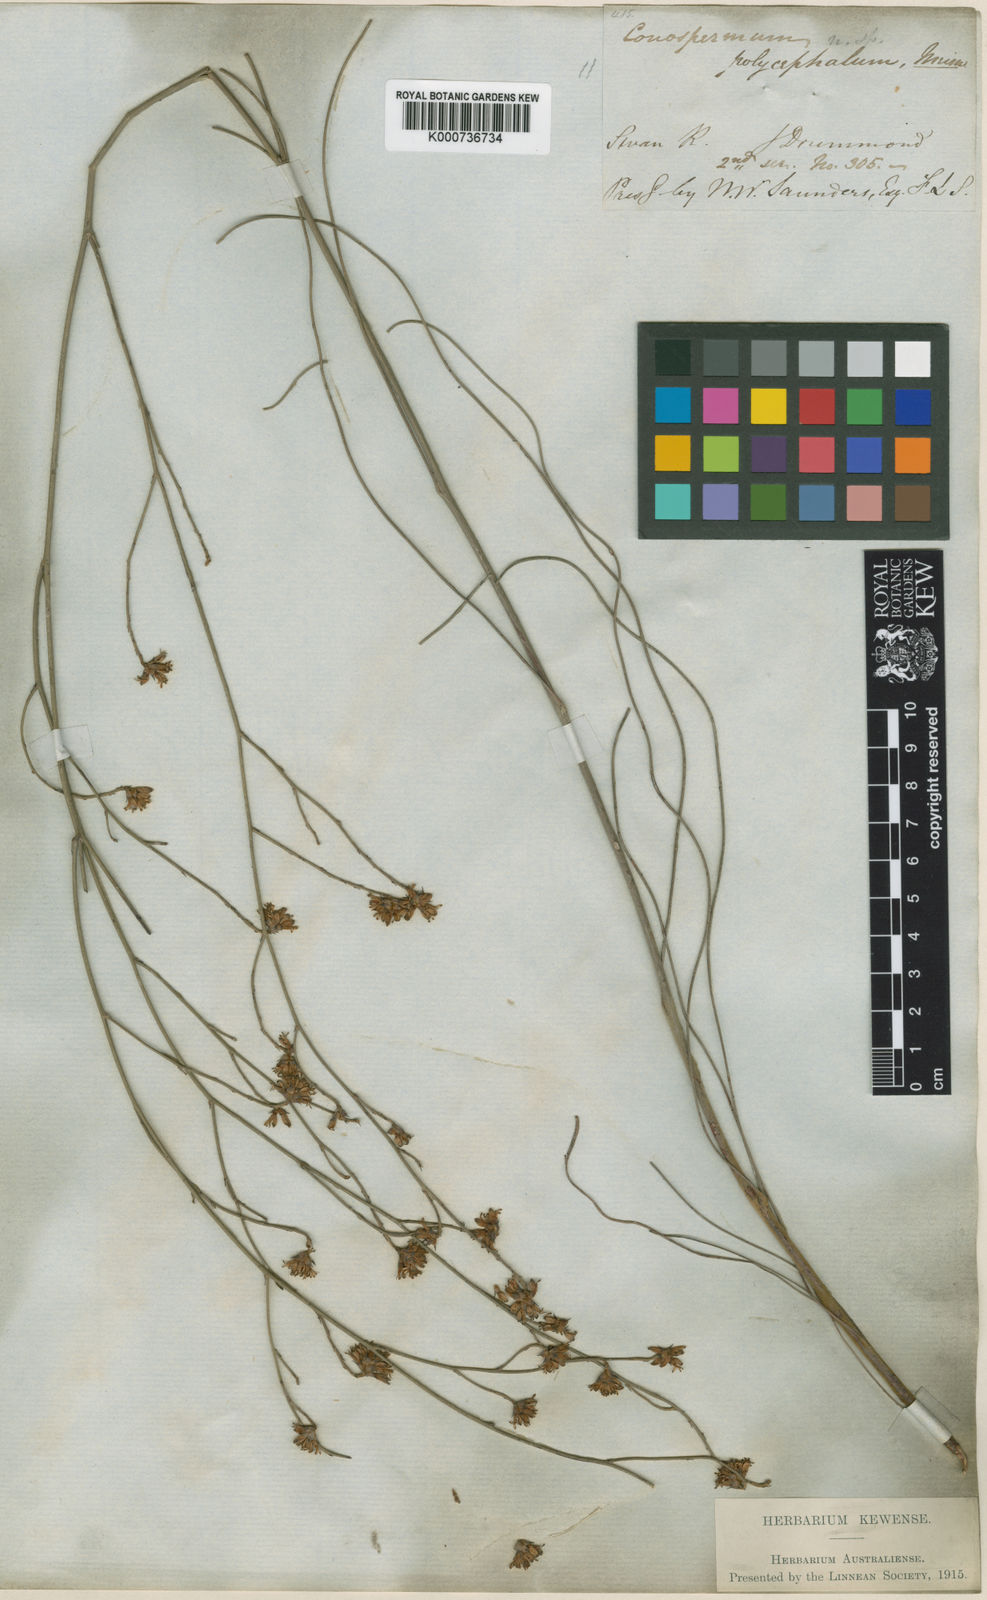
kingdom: Plantae
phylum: Tracheophyta
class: Magnoliopsida
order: Proteales
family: Proteaceae
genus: Conospermum
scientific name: Conospermum polycephalum
